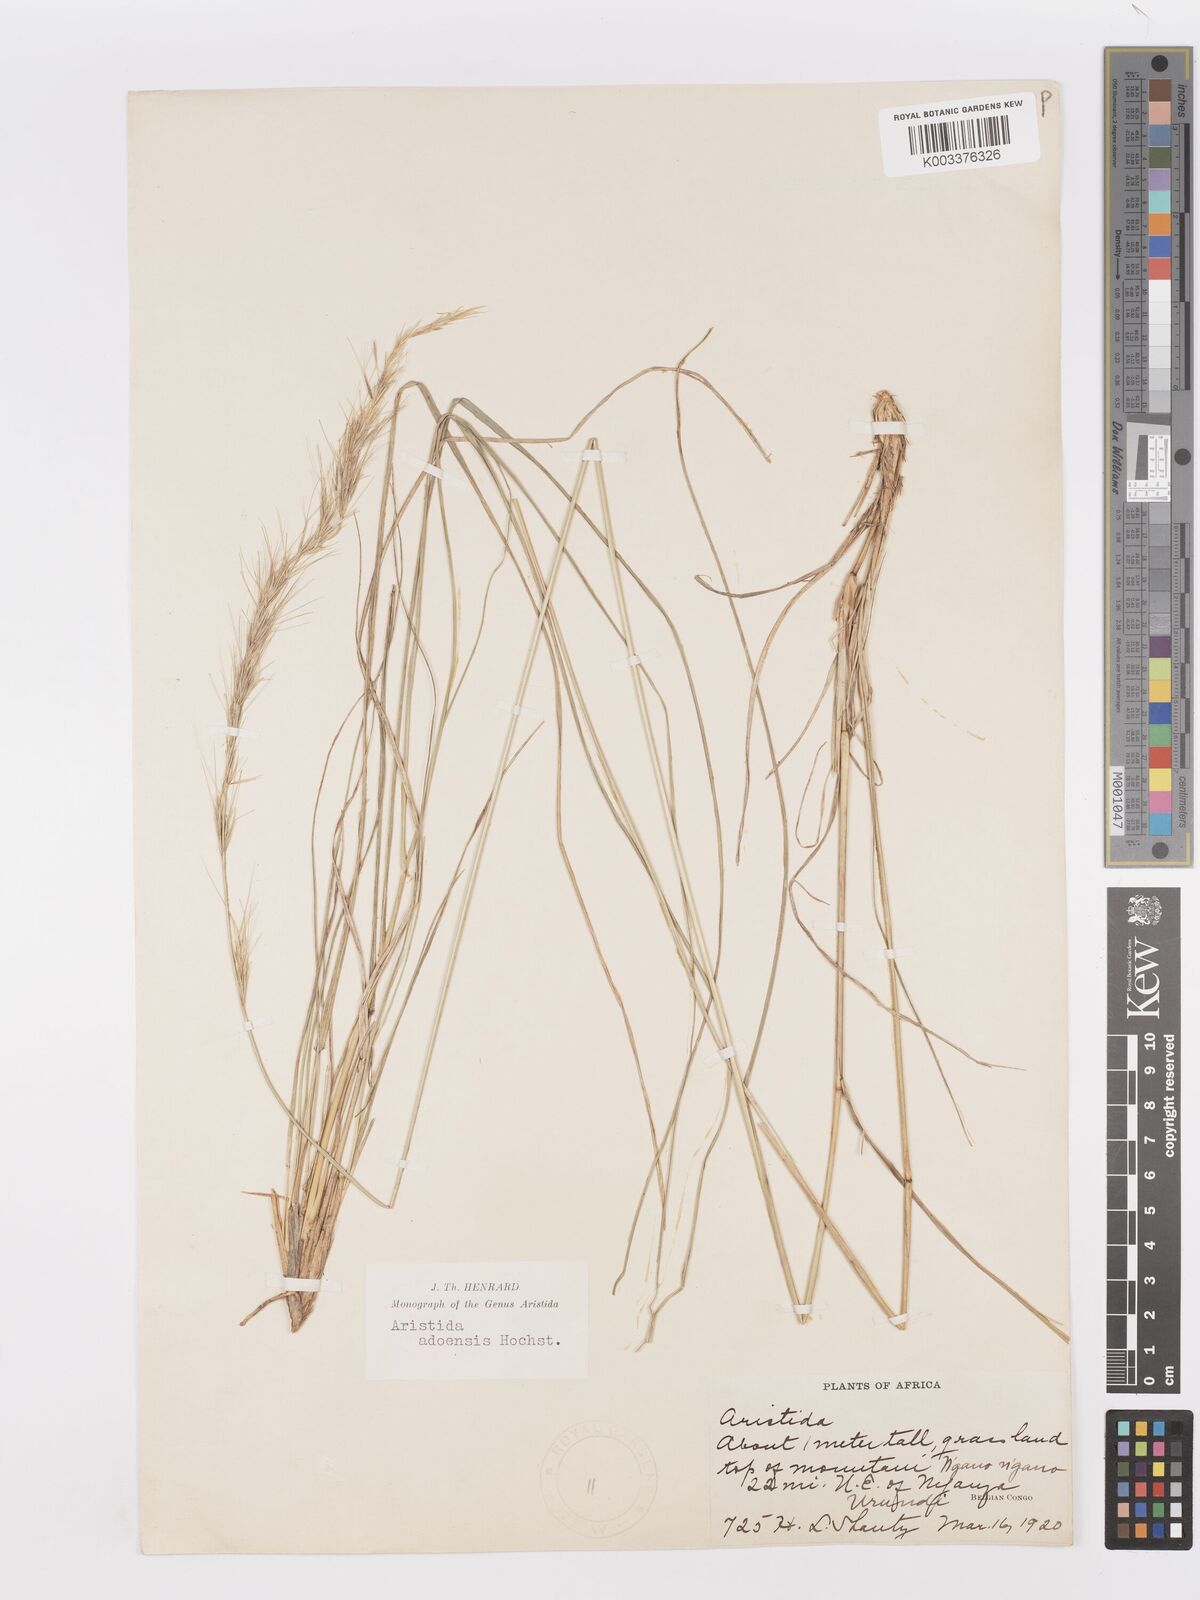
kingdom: Plantae
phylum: Tracheophyta
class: Liliopsida
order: Poales
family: Poaceae
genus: Aristida
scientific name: Aristida adoensis
